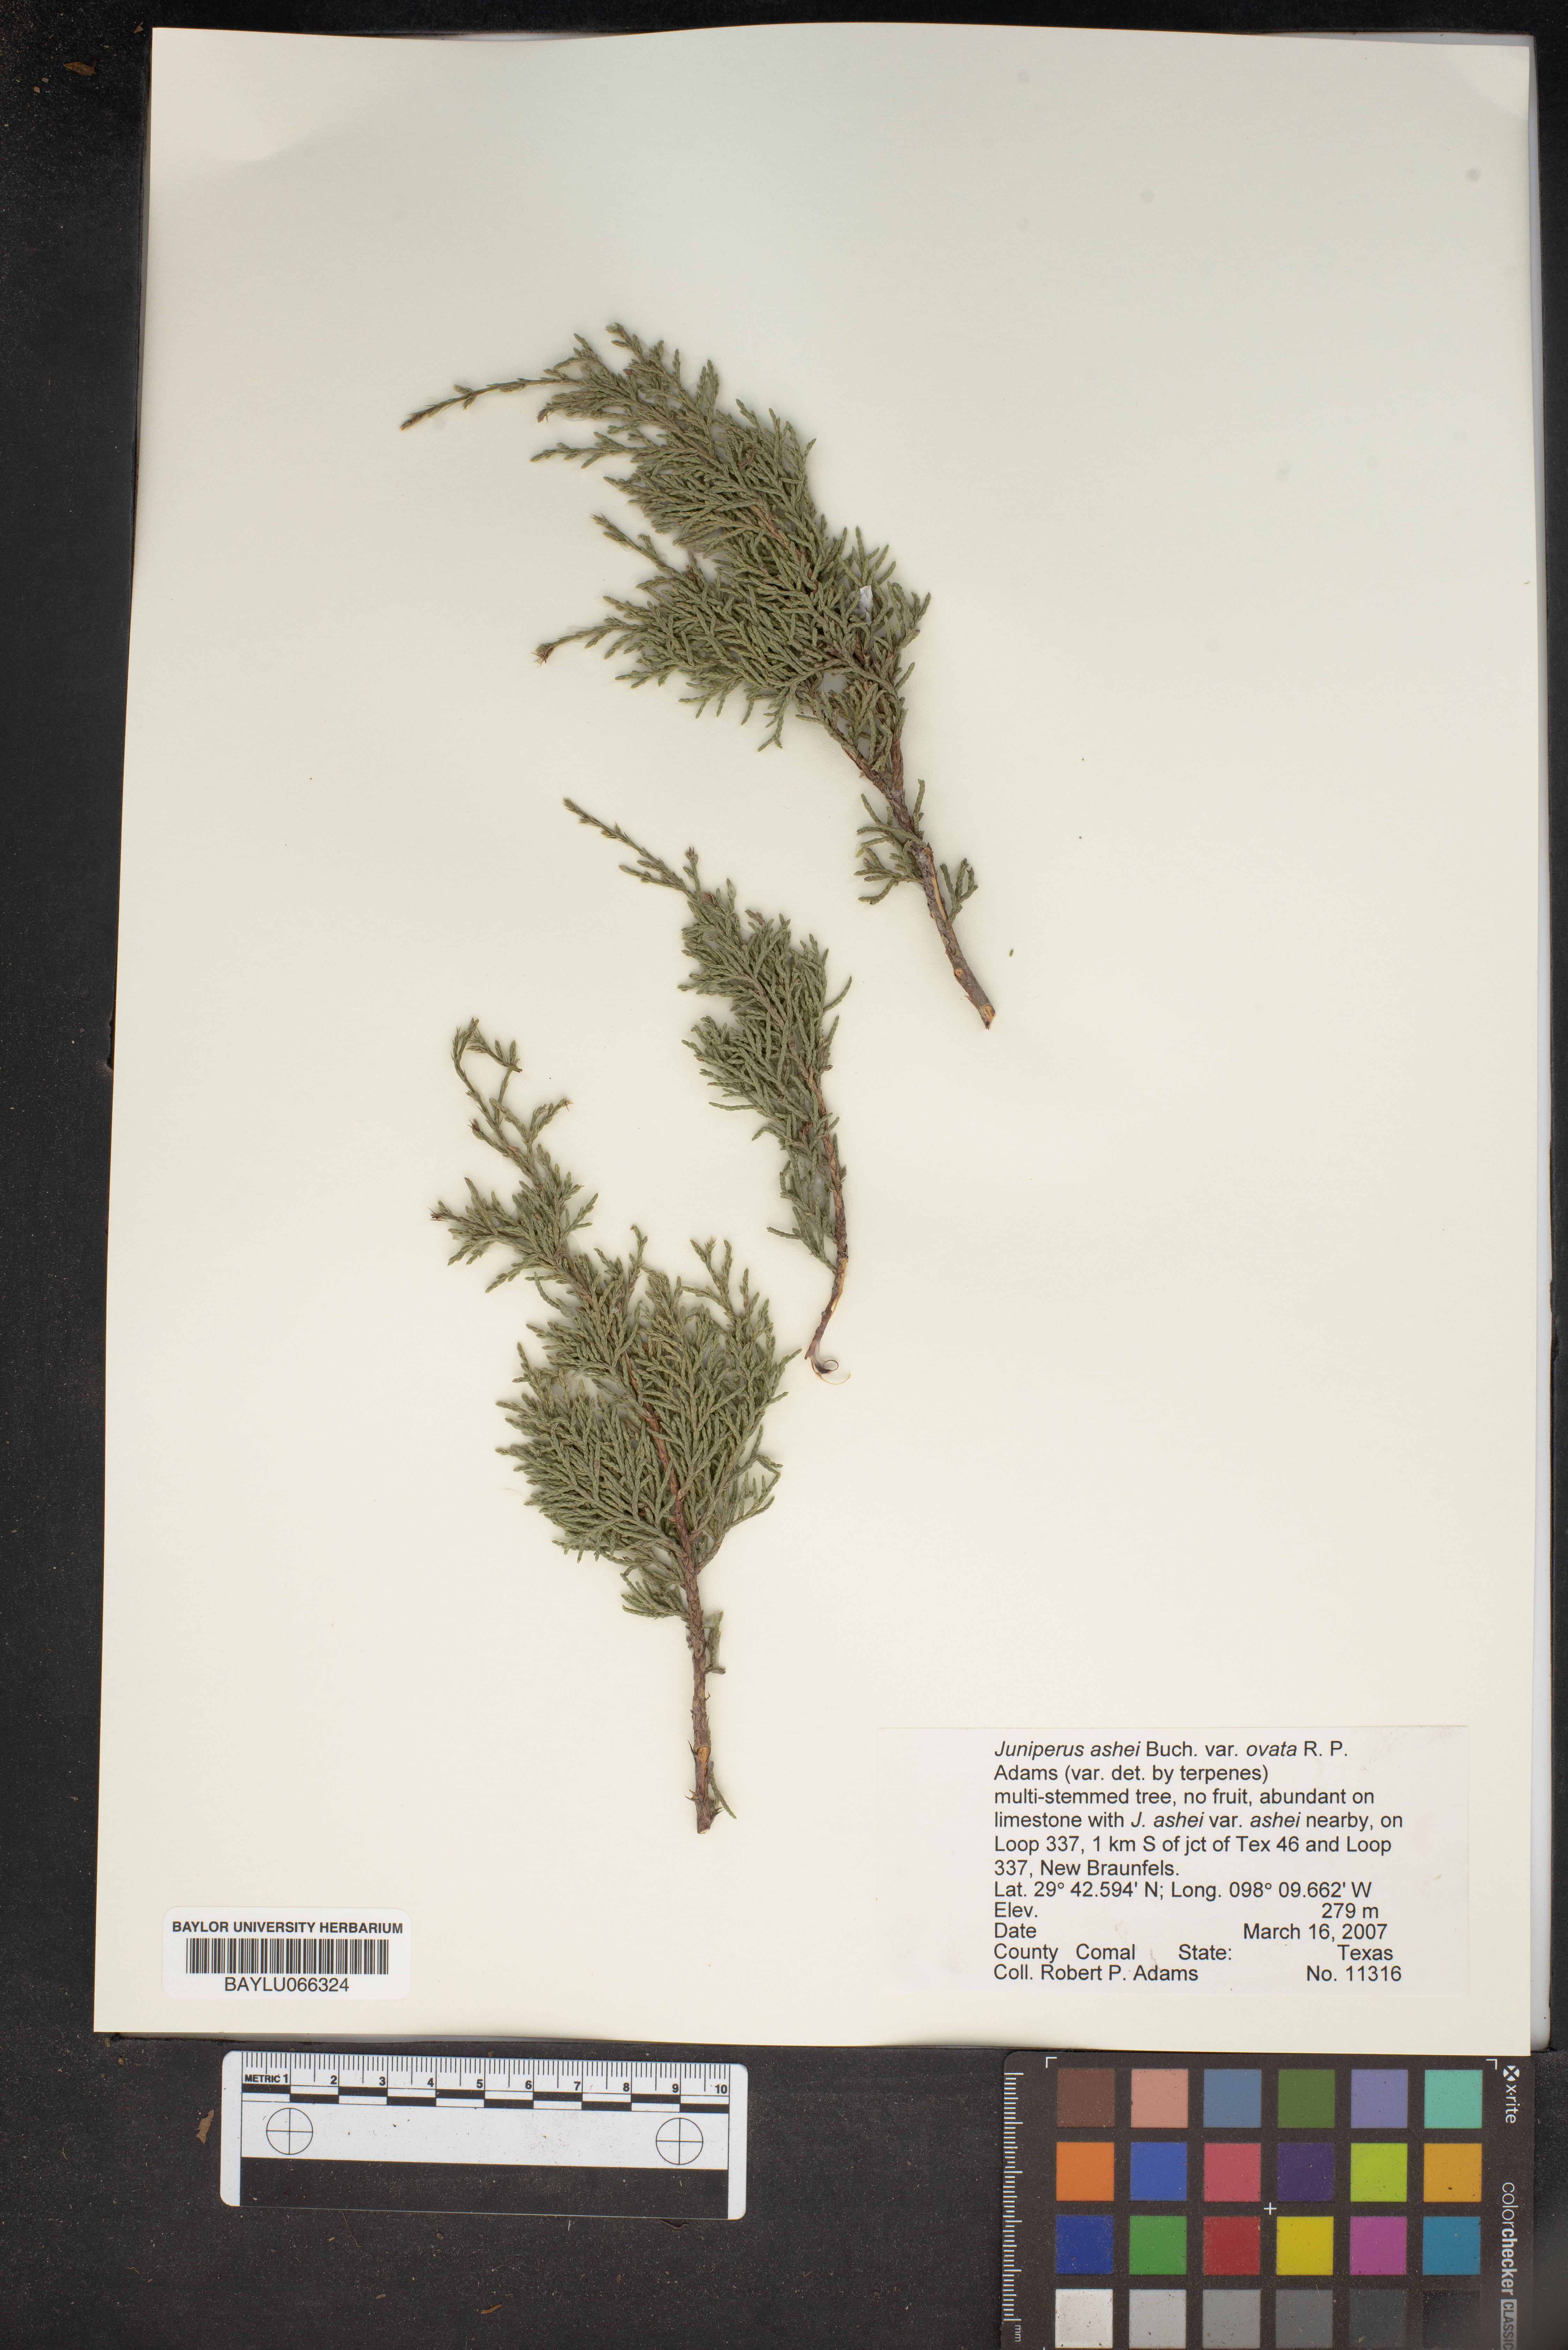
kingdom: Plantae
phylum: Tracheophyta
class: Pinopsida
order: Pinales
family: Cupressaceae
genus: Juniperus
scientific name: Juniperus ashei
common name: Mexican juniper
